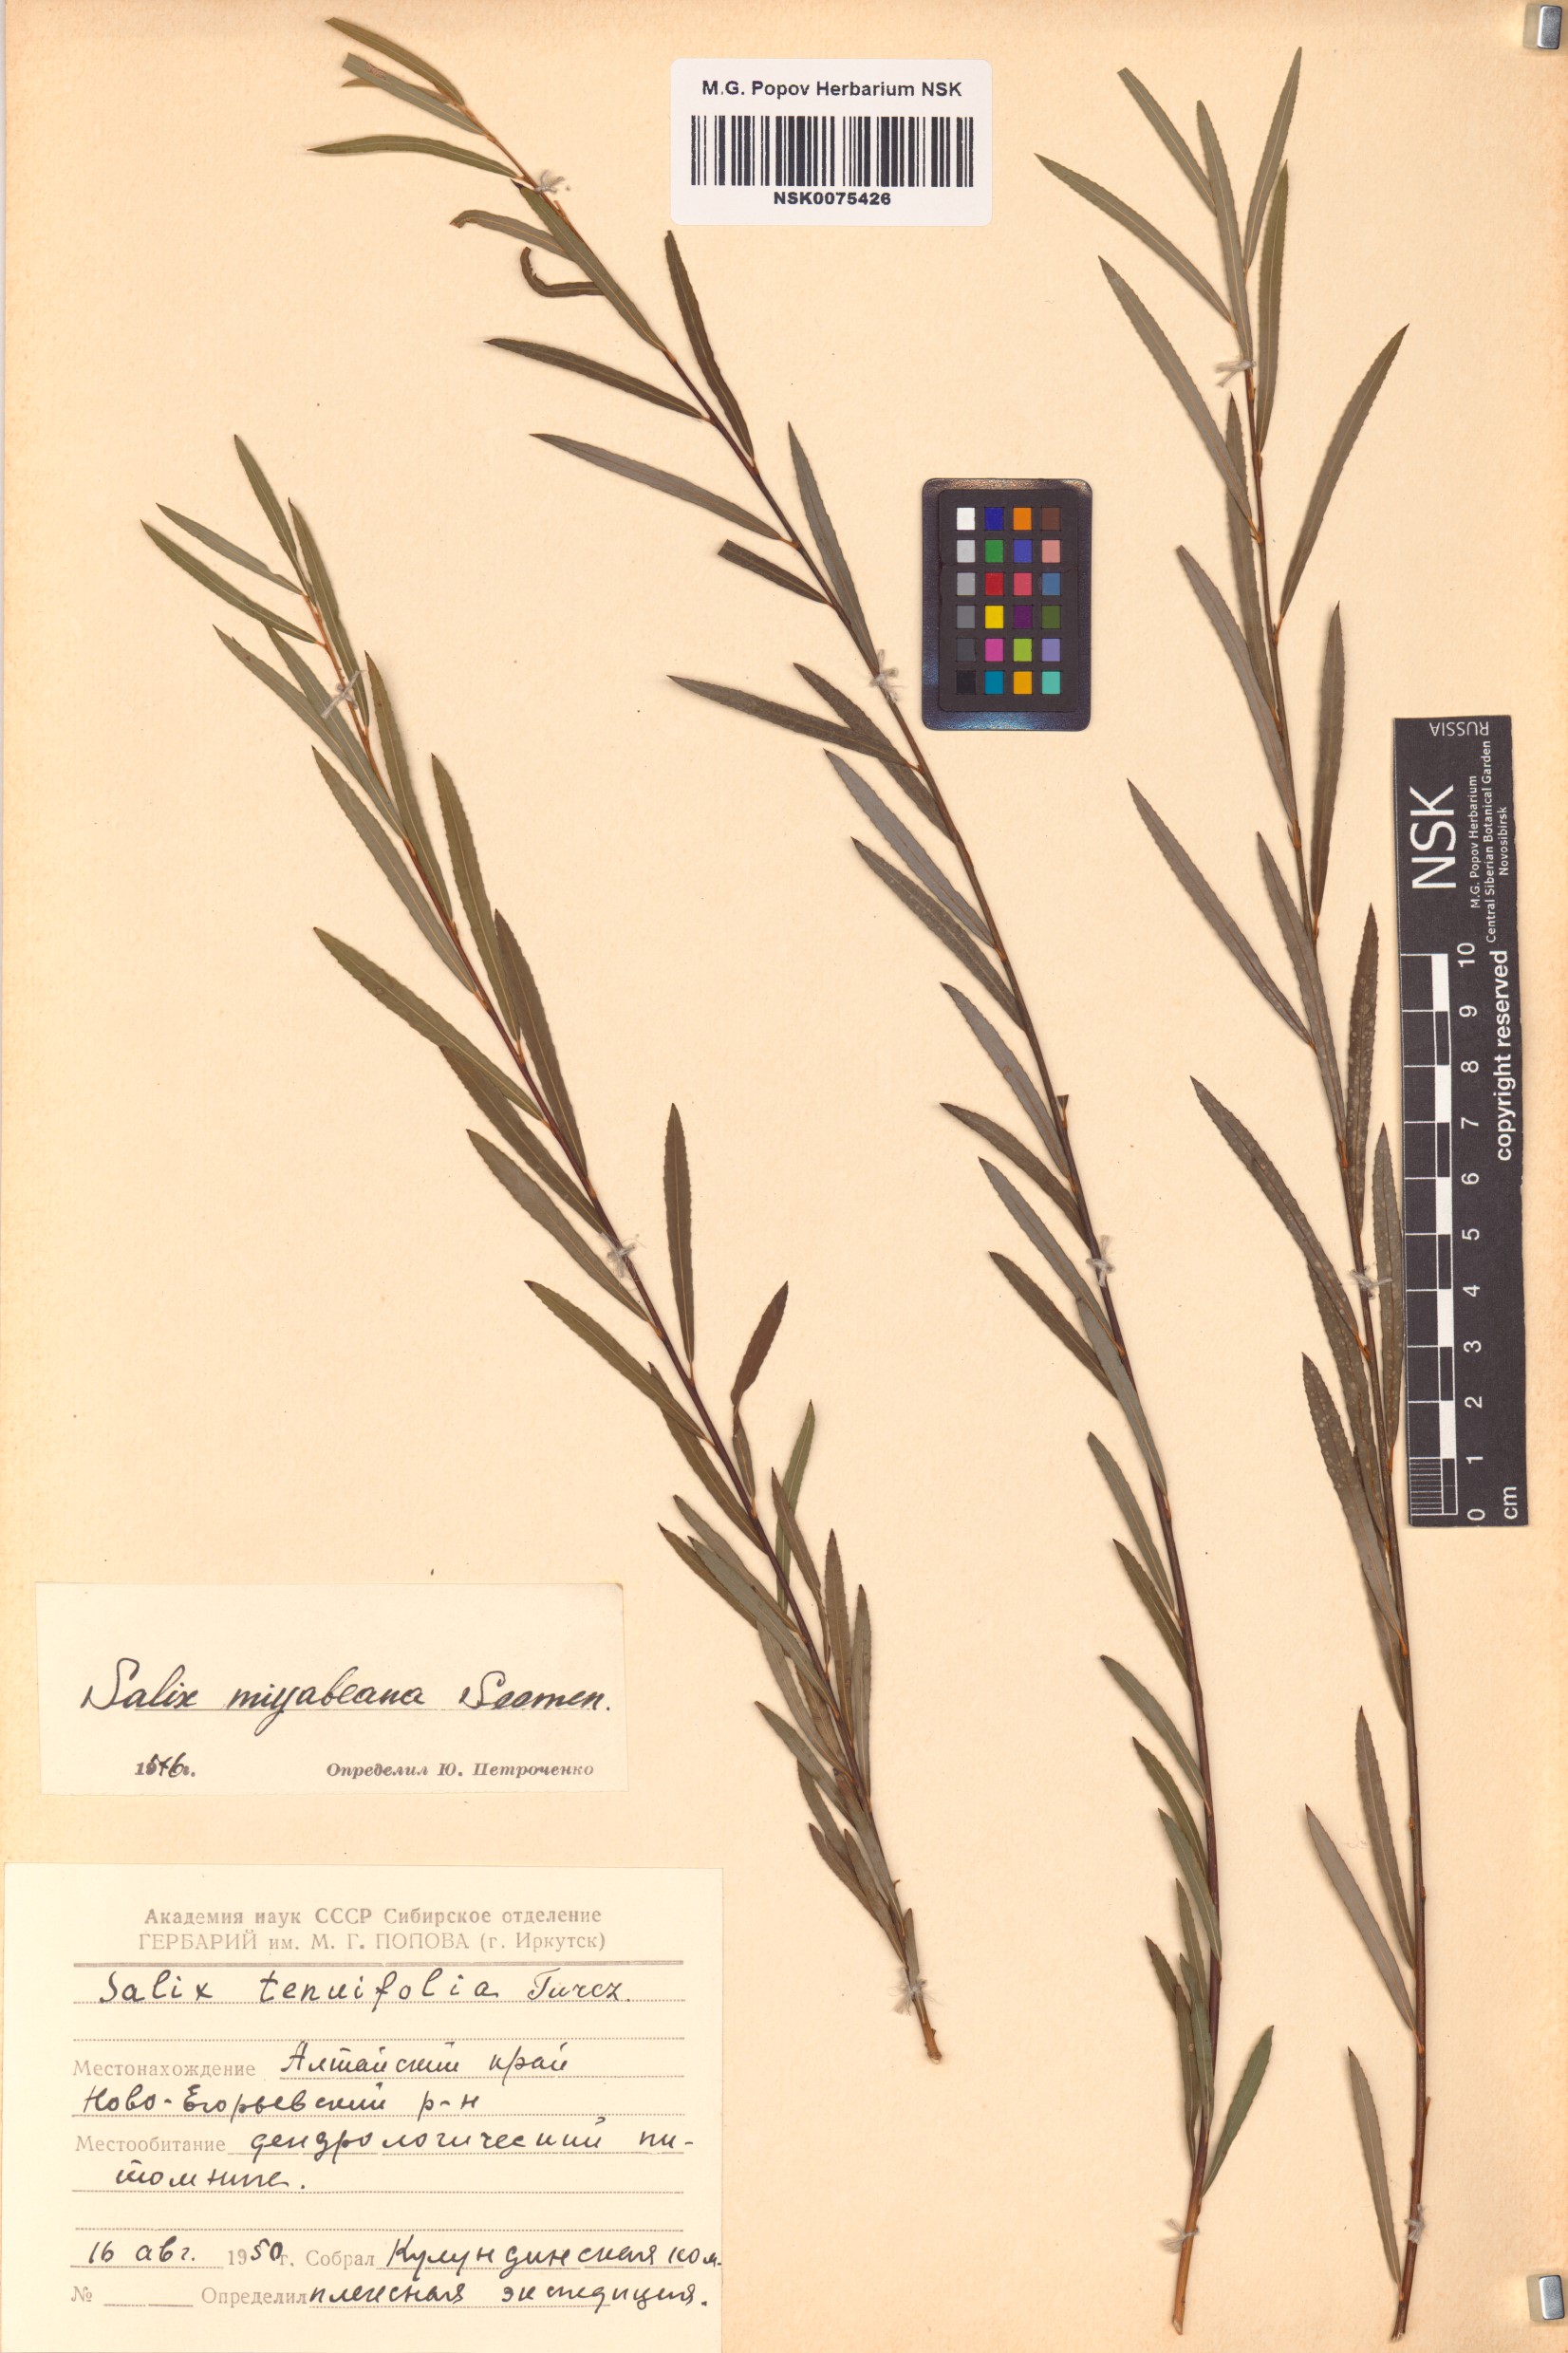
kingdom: Plantae
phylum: Tracheophyta
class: Magnoliopsida
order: Malpighiales
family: Salicaceae
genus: Salix
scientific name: Salix miyabeana
